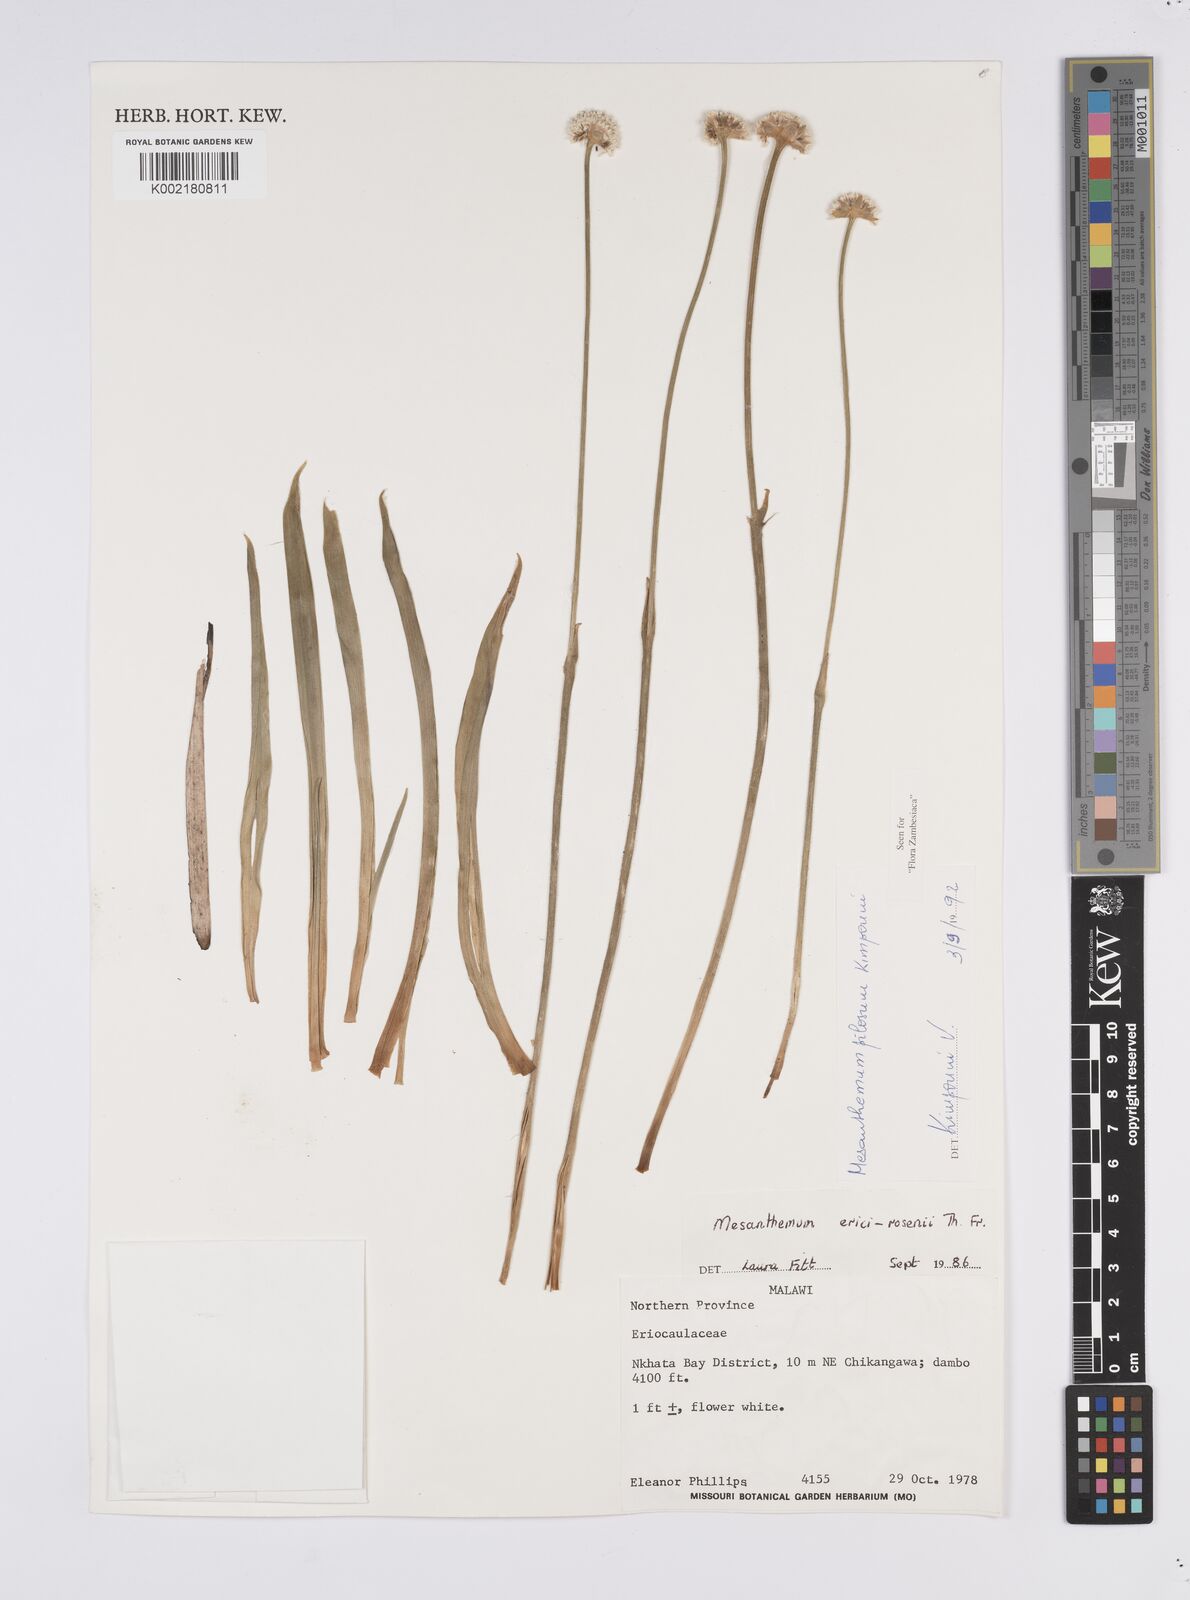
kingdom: Plantae
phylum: Tracheophyta
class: Liliopsida
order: Poales
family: Eriocaulaceae
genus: Mesanthemum
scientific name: Mesanthemum pilosum
